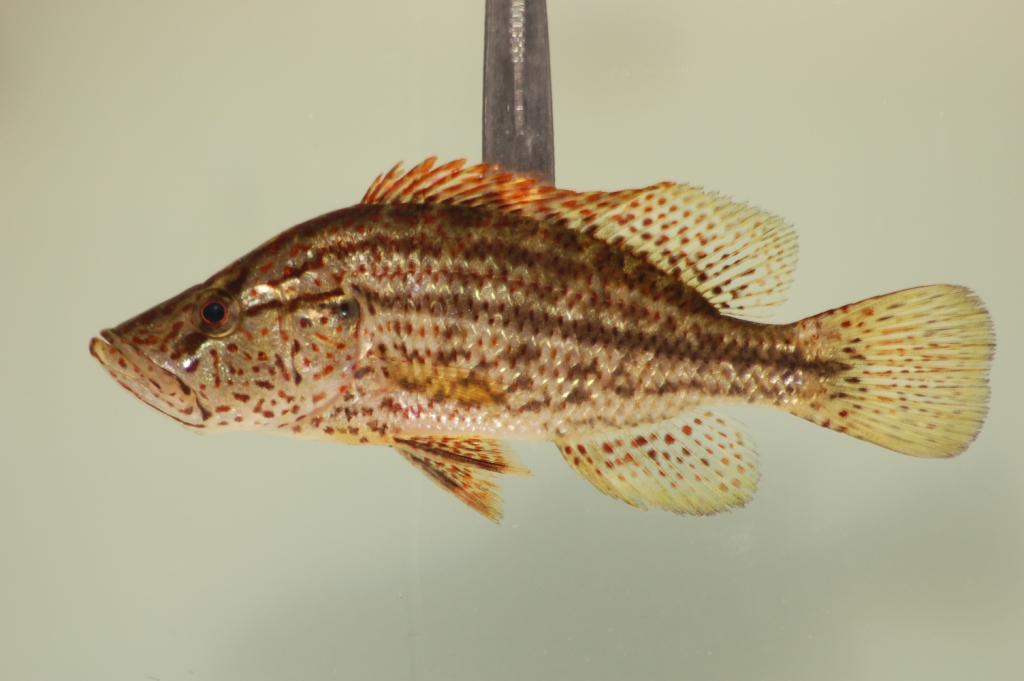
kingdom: Animalia
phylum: Chordata
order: Perciformes
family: Cichlidae
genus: Serranochromis
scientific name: Serranochromis angusticeps
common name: Thinface largemouth
